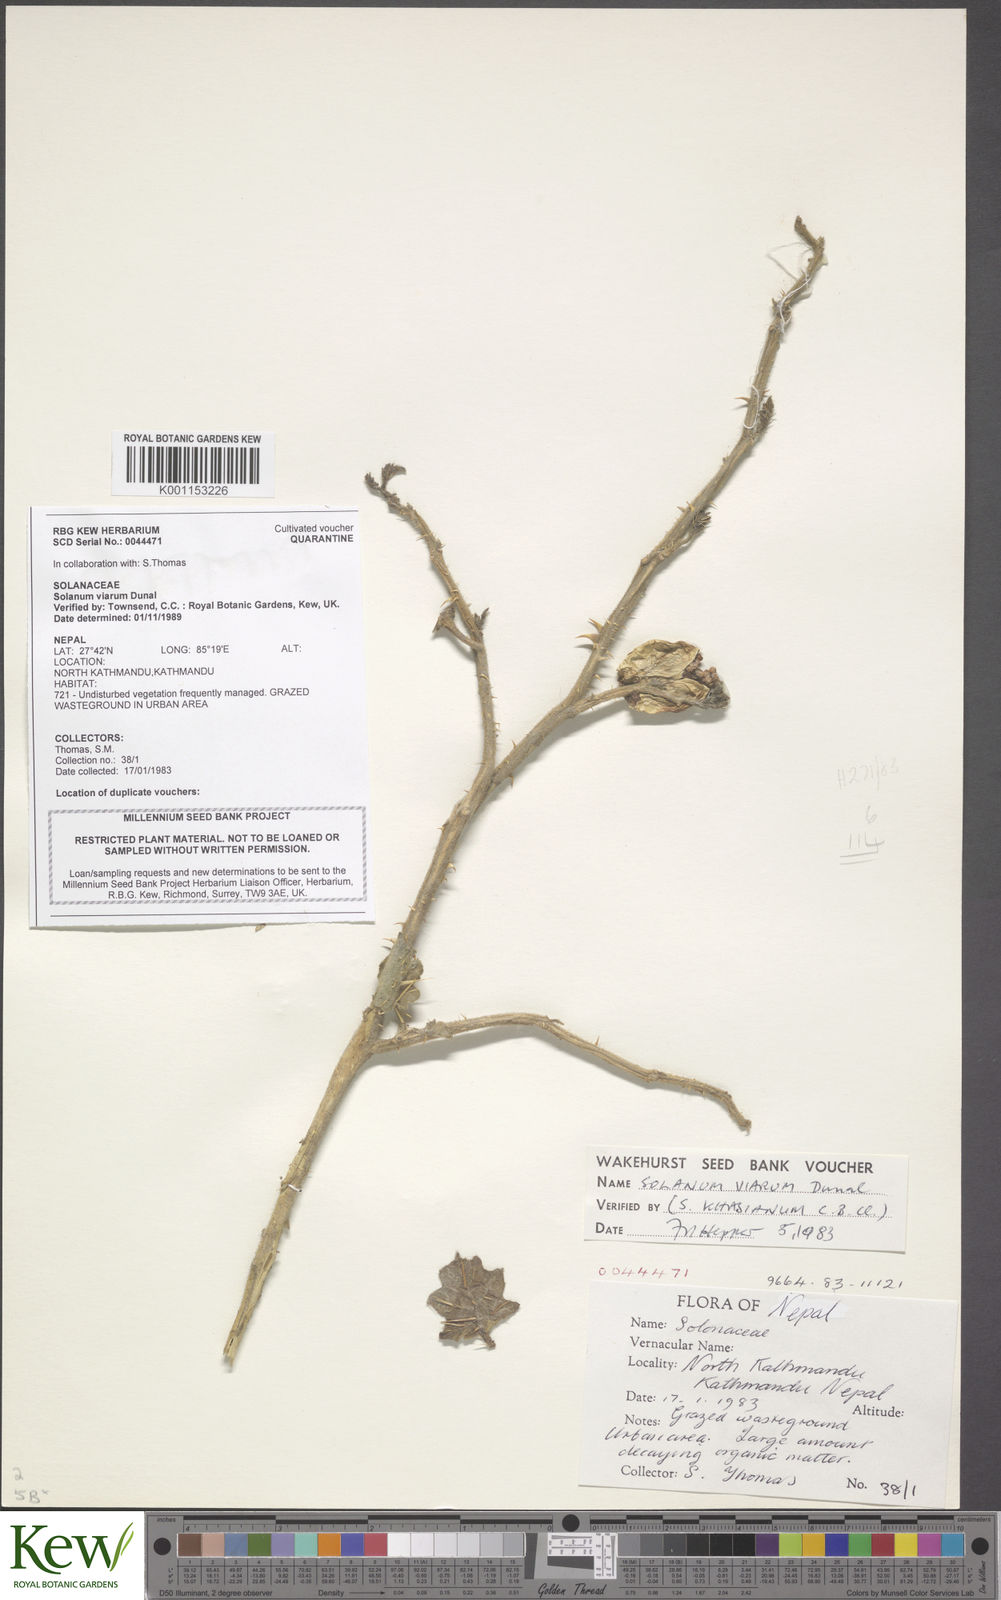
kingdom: Plantae
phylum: Tracheophyta
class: Magnoliopsida
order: Solanales
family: Solanaceae
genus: Solanum
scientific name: Solanum viarum
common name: Tropical soda apple
